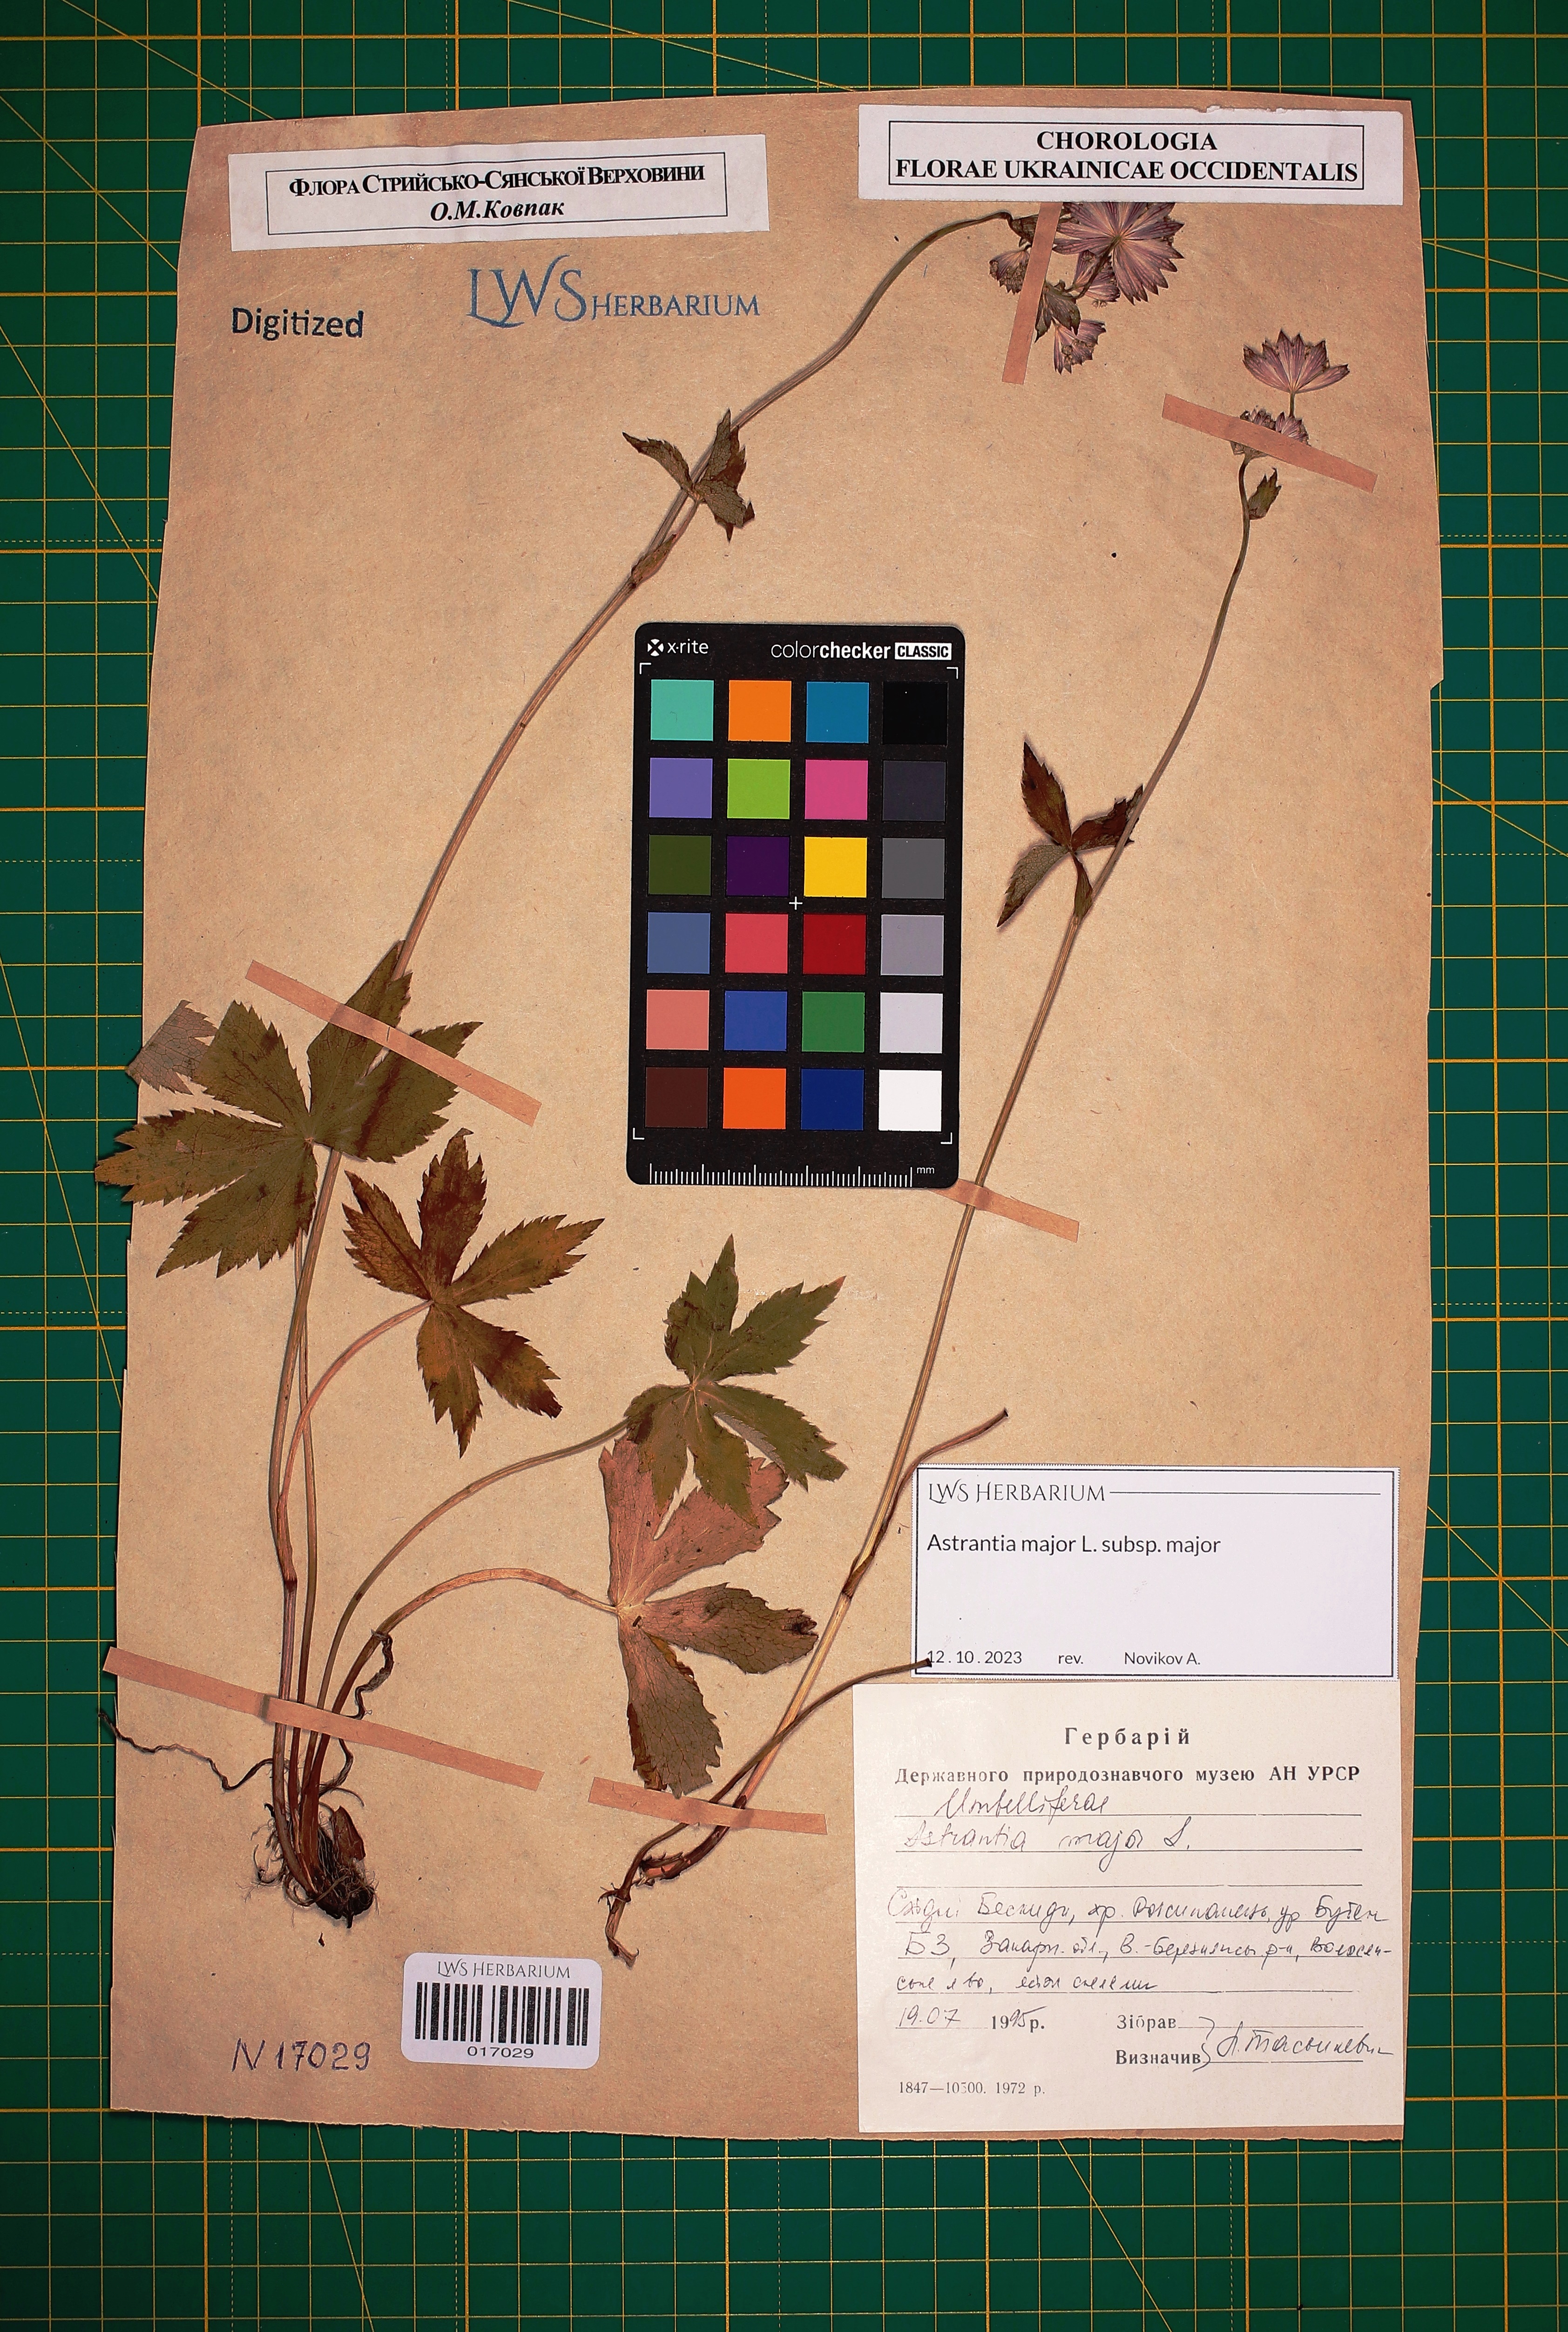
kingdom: Plantae
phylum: Tracheophyta
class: Magnoliopsida
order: Apiales
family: Apiaceae
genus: Astrantia
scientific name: Astrantia major
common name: Greater masterwort
